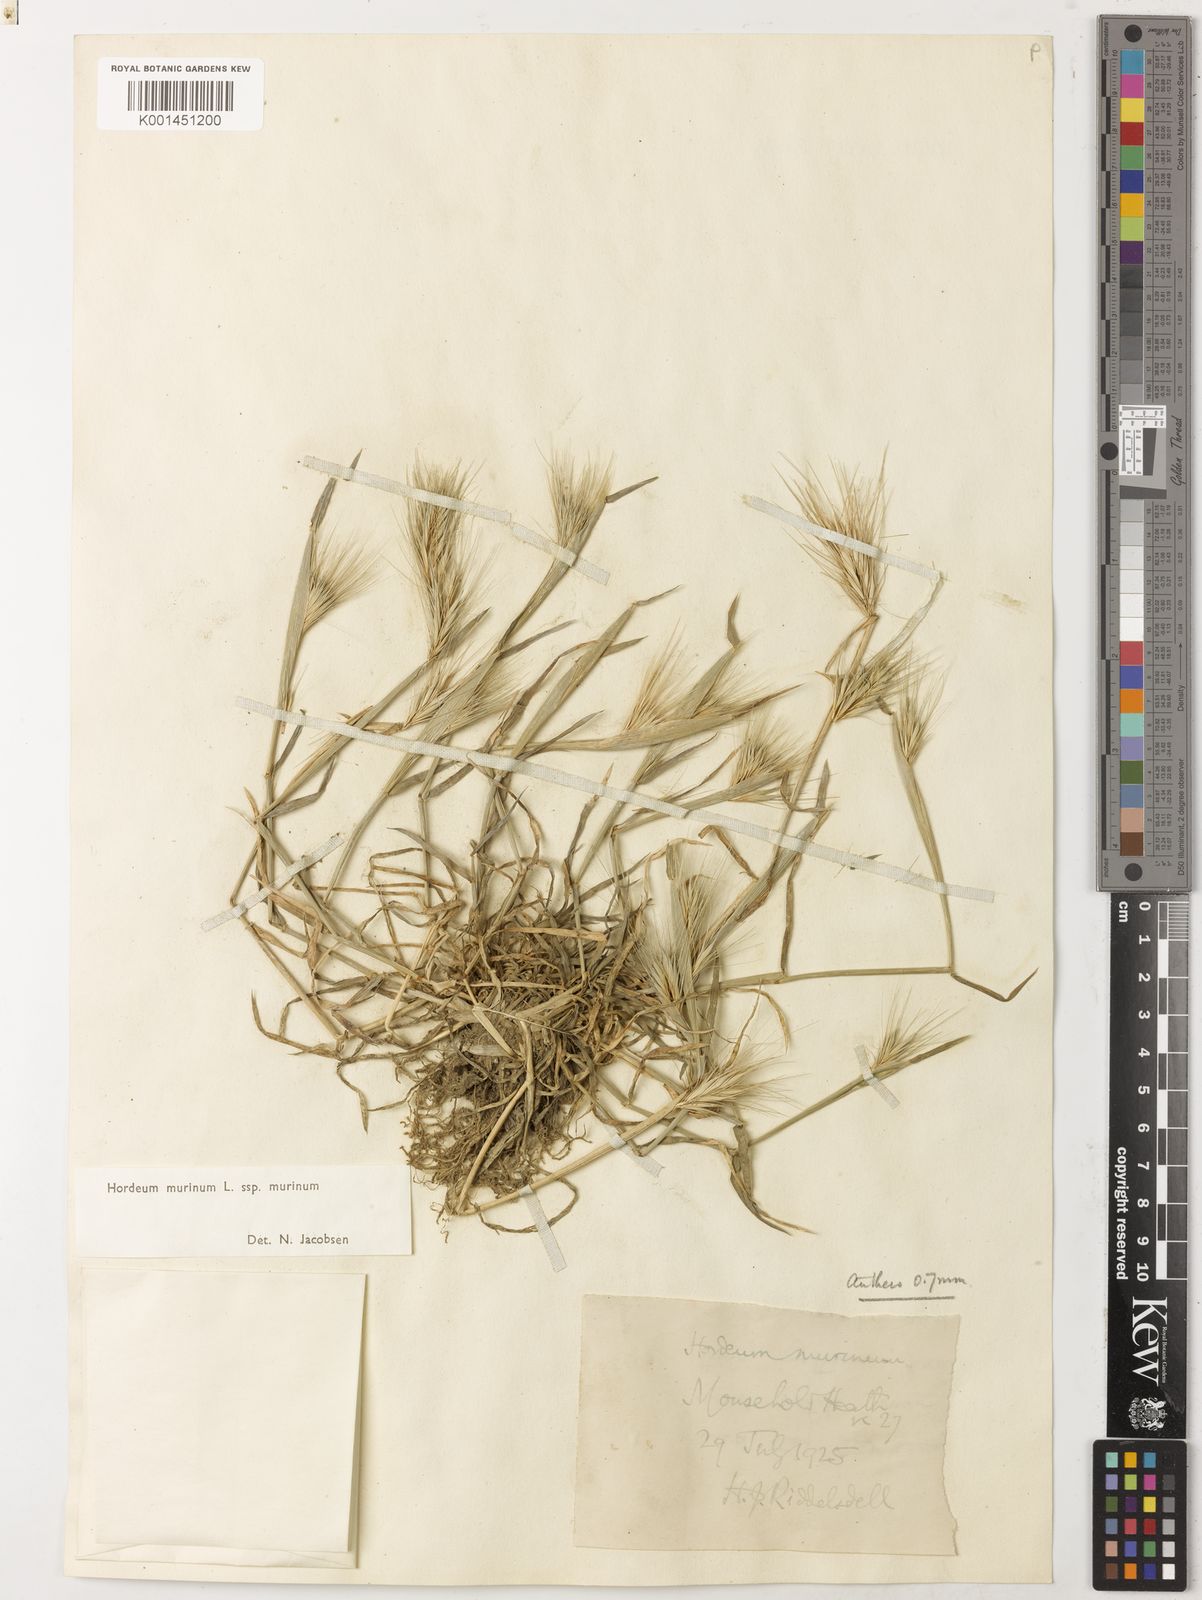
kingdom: Plantae
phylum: Tracheophyta
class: Liliopsida
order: Poales
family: Poaceae
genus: Hordeum
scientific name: Hordeum murinum
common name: Wall barley
